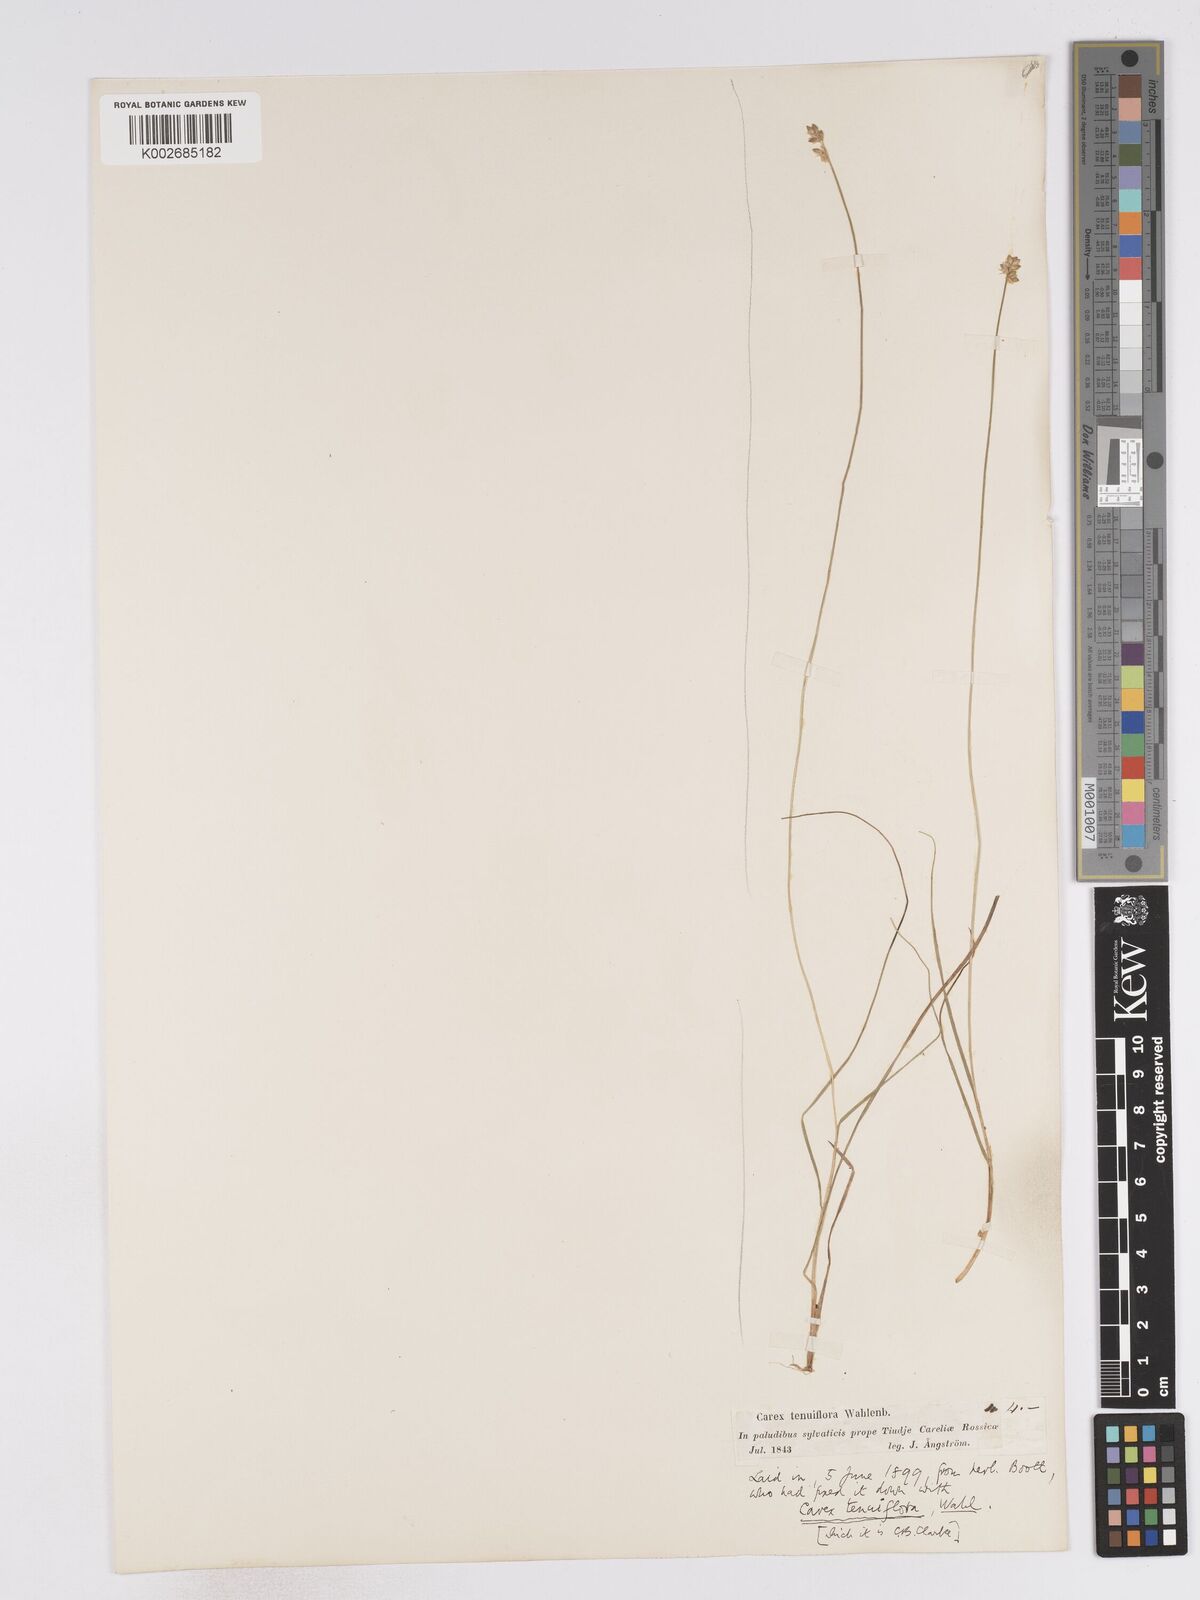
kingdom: Plantae
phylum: Tracheophyta
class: Liliopsida
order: Poales
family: Cyperaceae
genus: Carex
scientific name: Carex tenuiflora
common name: Sparse-flowered sedge
